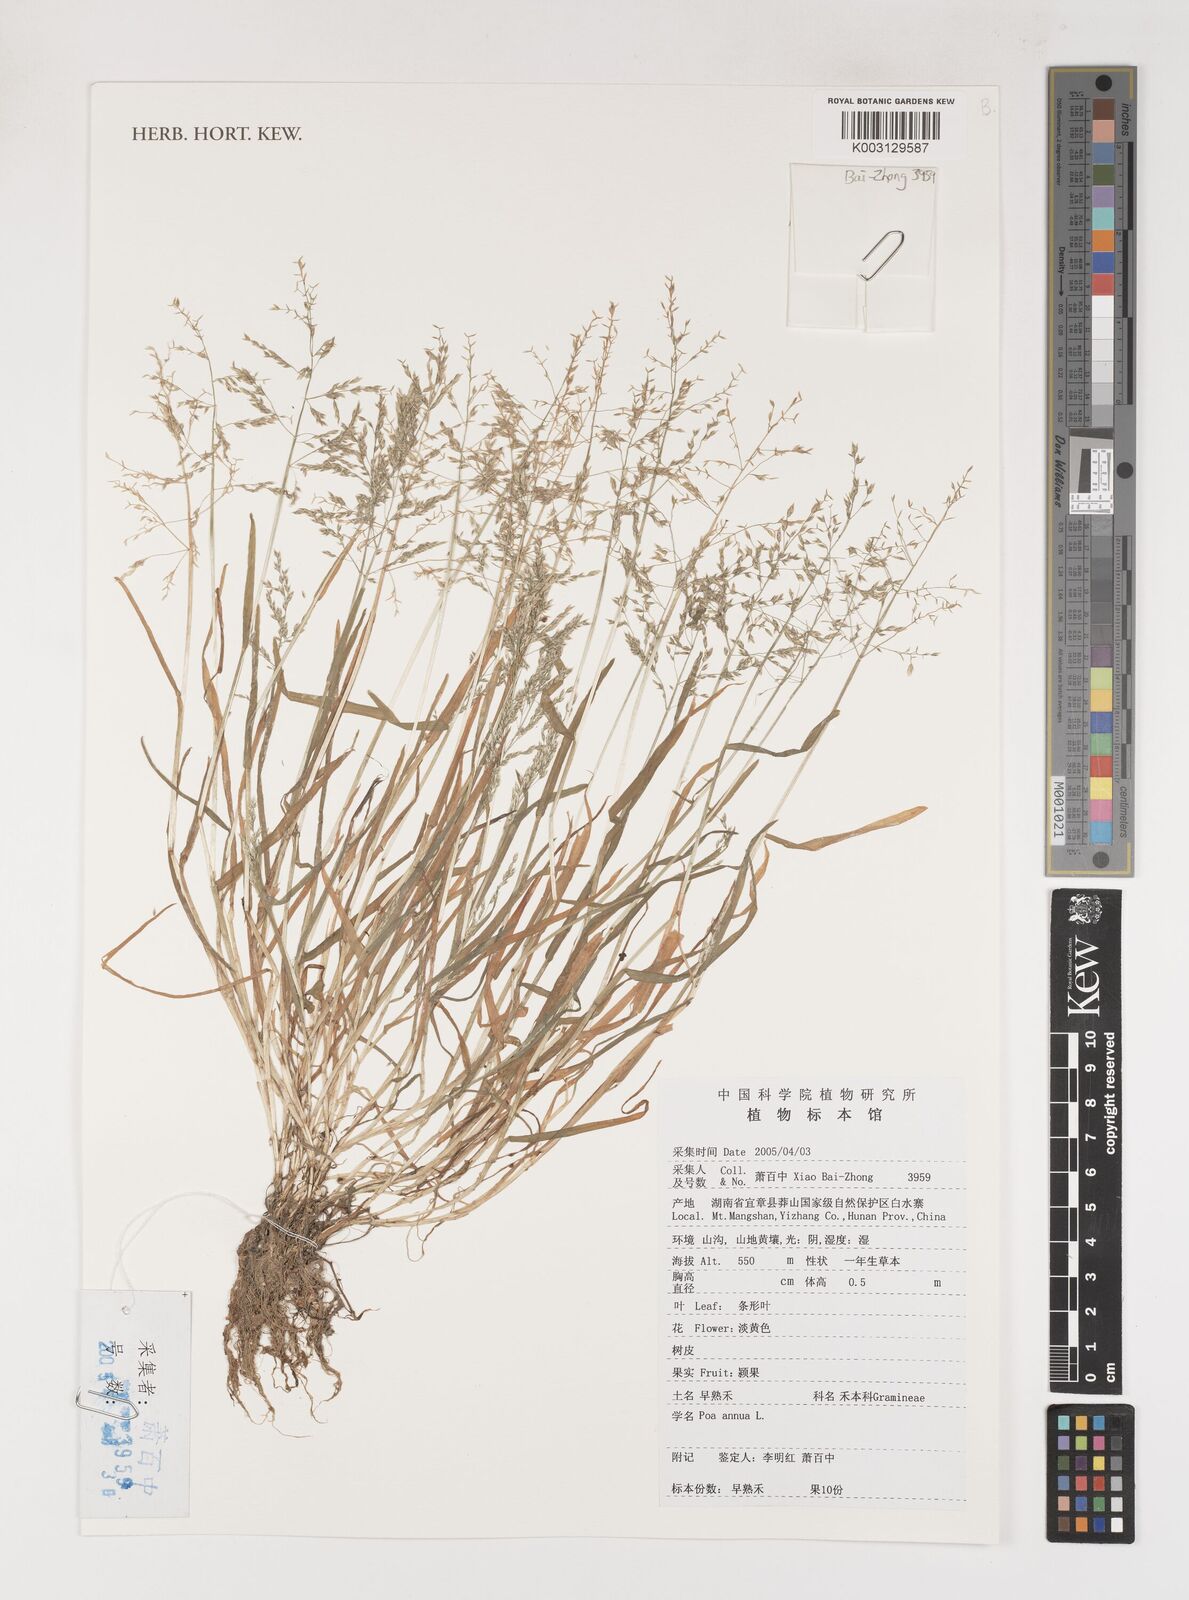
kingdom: Plantae
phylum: Tracheophyta
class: Liliopsida
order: Poales
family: Poaceae
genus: Poa
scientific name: Poa annua
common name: Annual bluegrass
